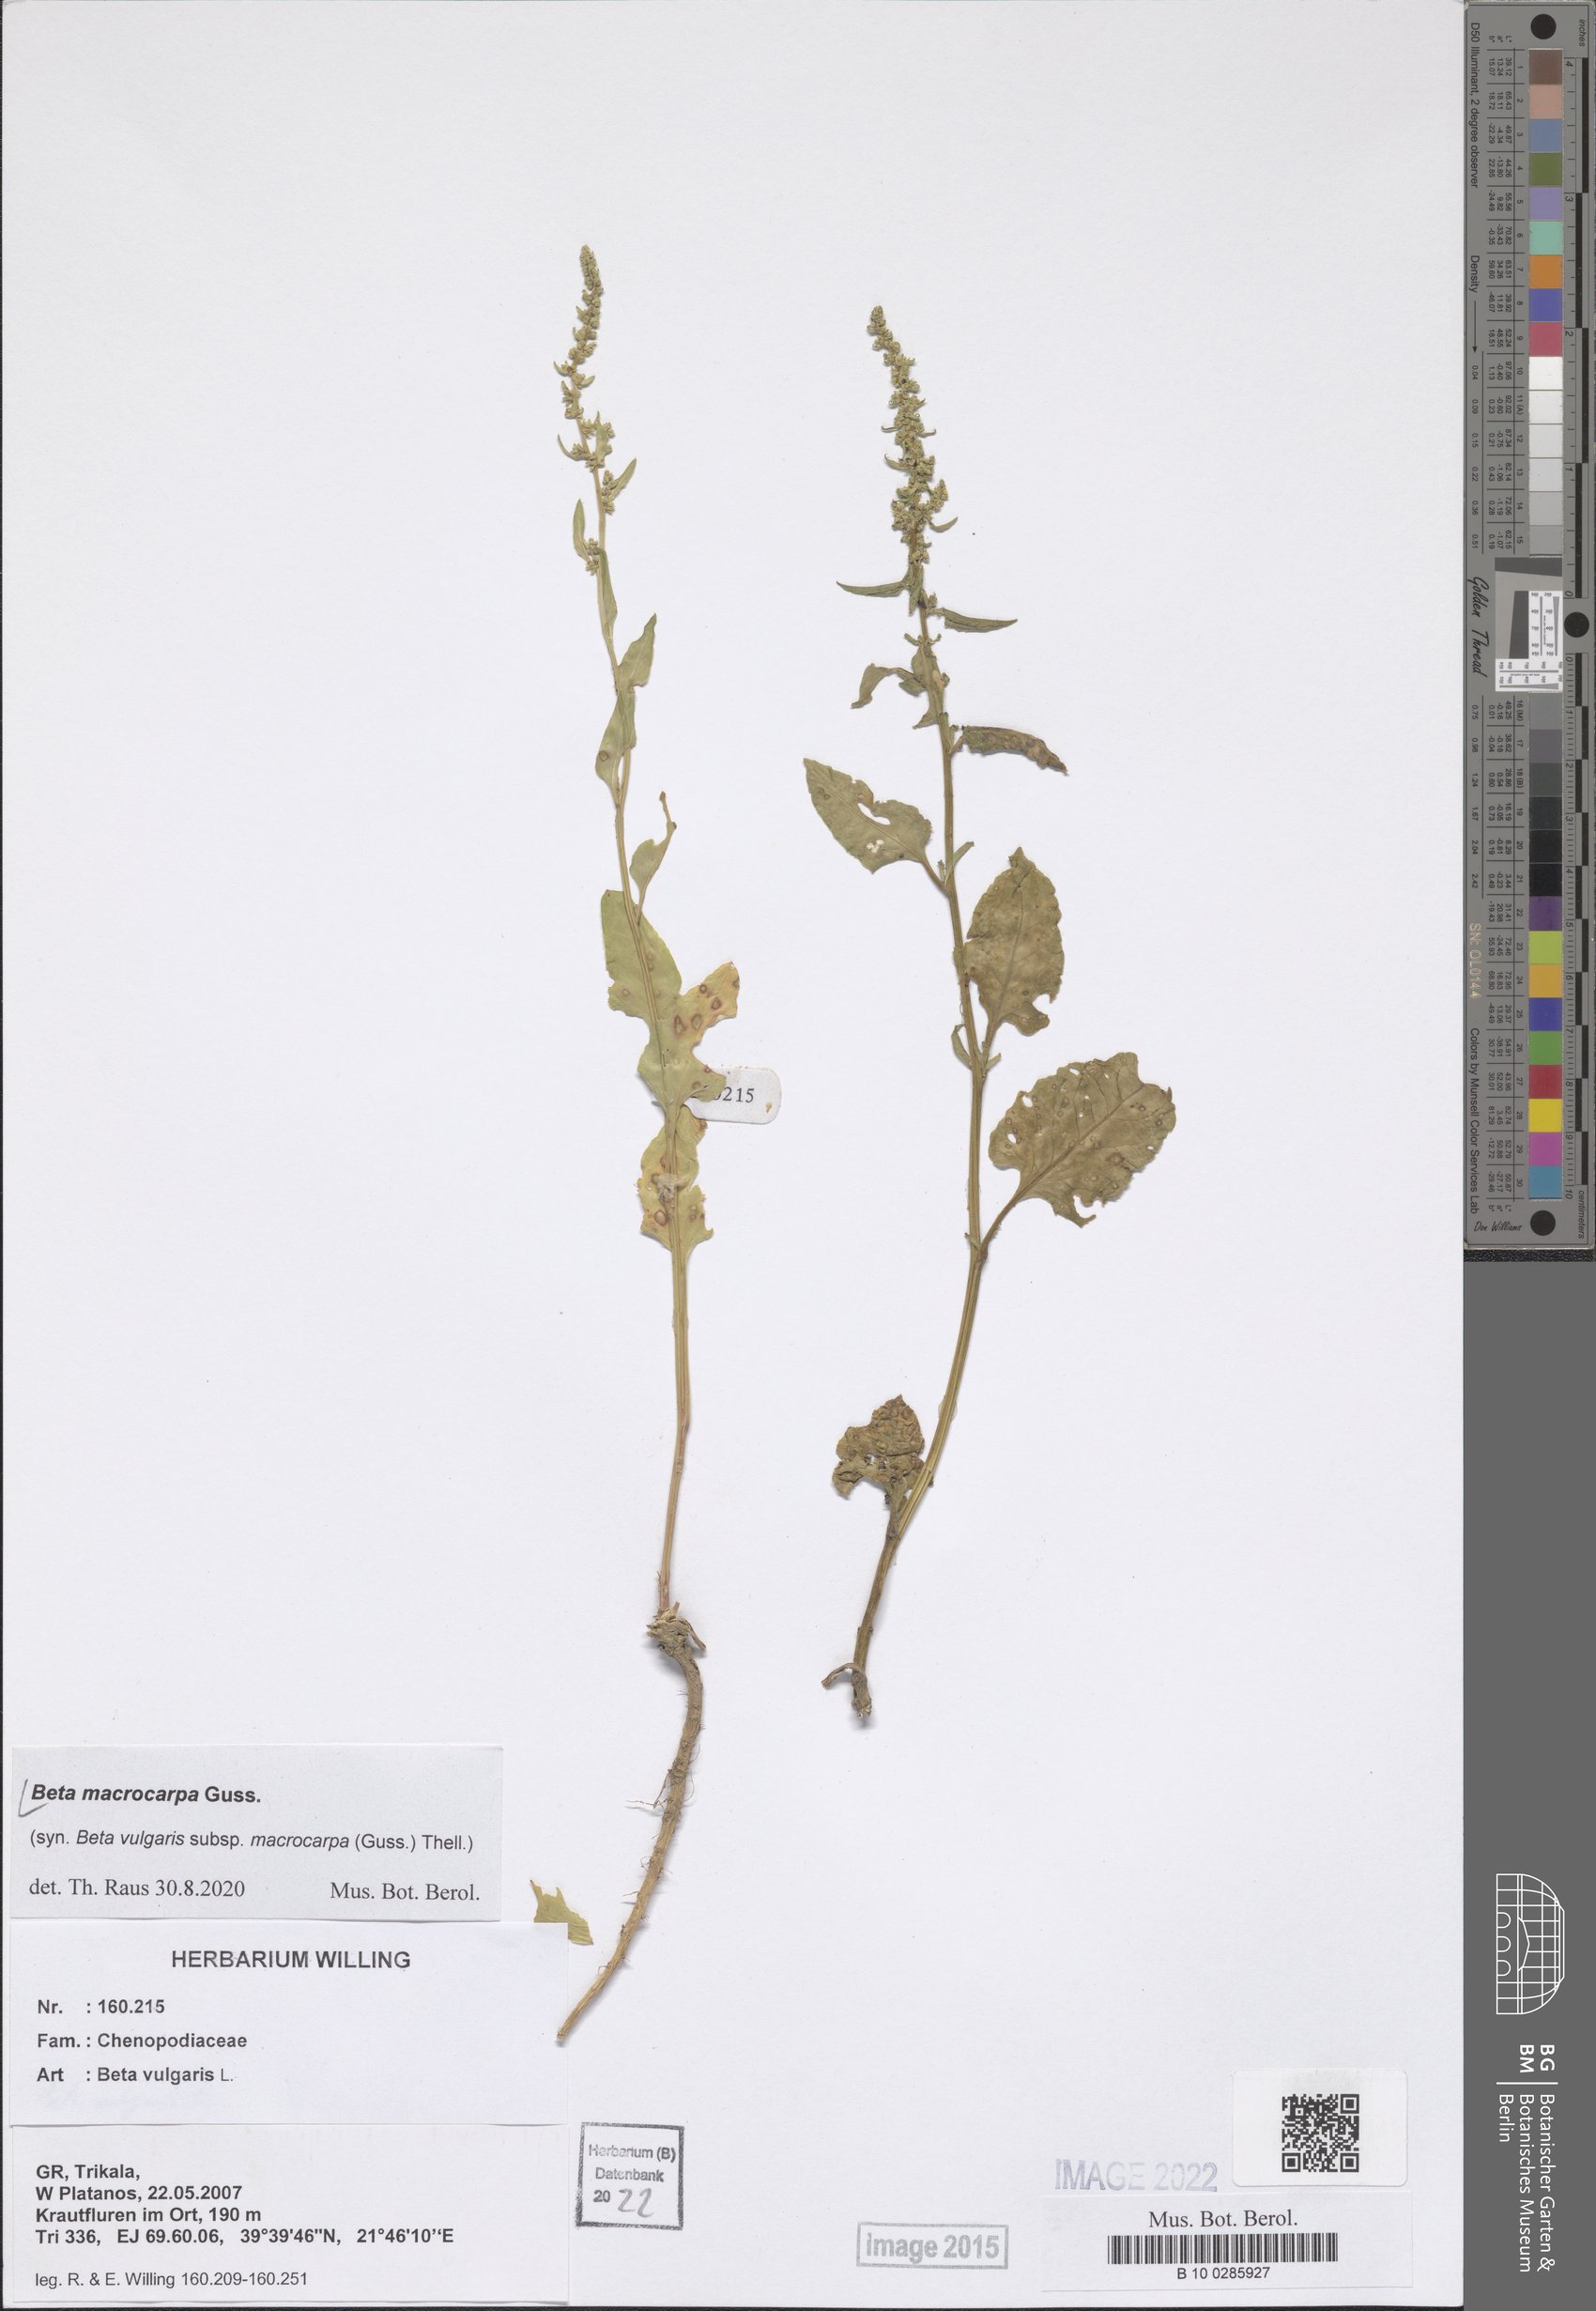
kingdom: Plantae
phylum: Tracheophyta
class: Magnoliopsida
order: Caryophyllales
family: Amaranthaceae
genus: Beta
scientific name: Beta macrocarpa
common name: Beet
